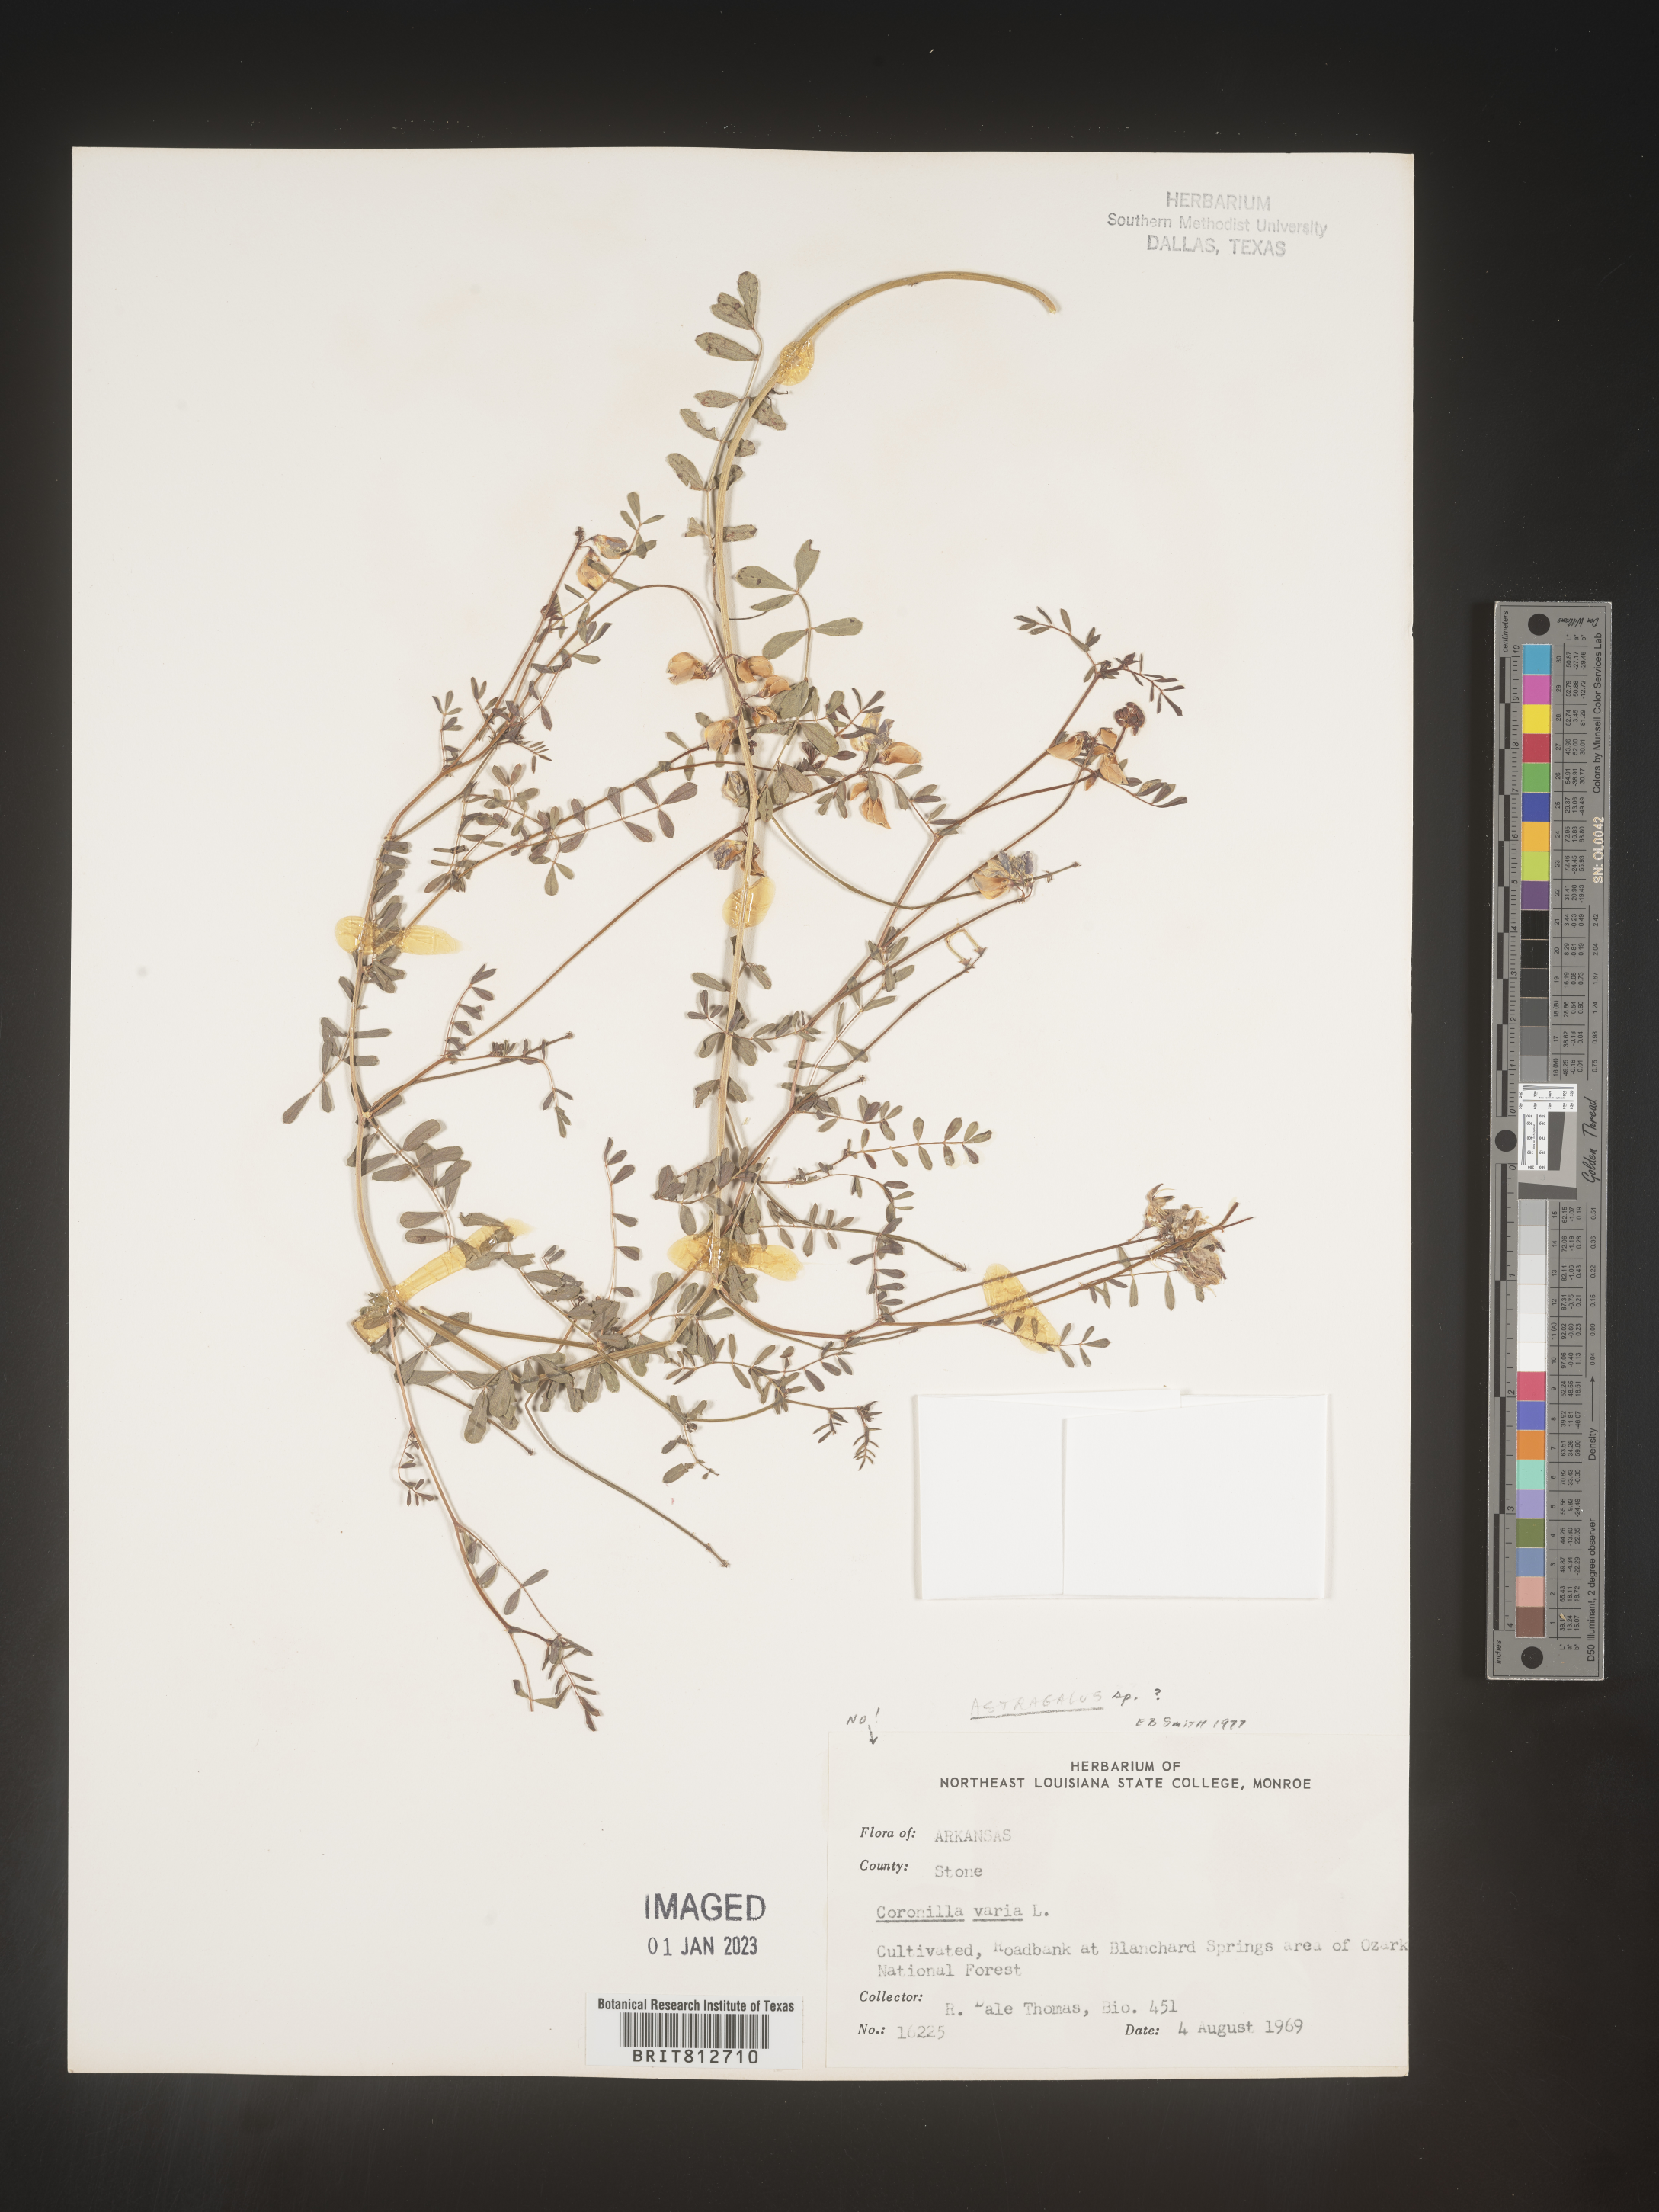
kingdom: Plantae
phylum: Tracheophyta
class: Magnoliopsida
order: Fabales
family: Fabaceae
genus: Astragalus
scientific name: Astragalus
